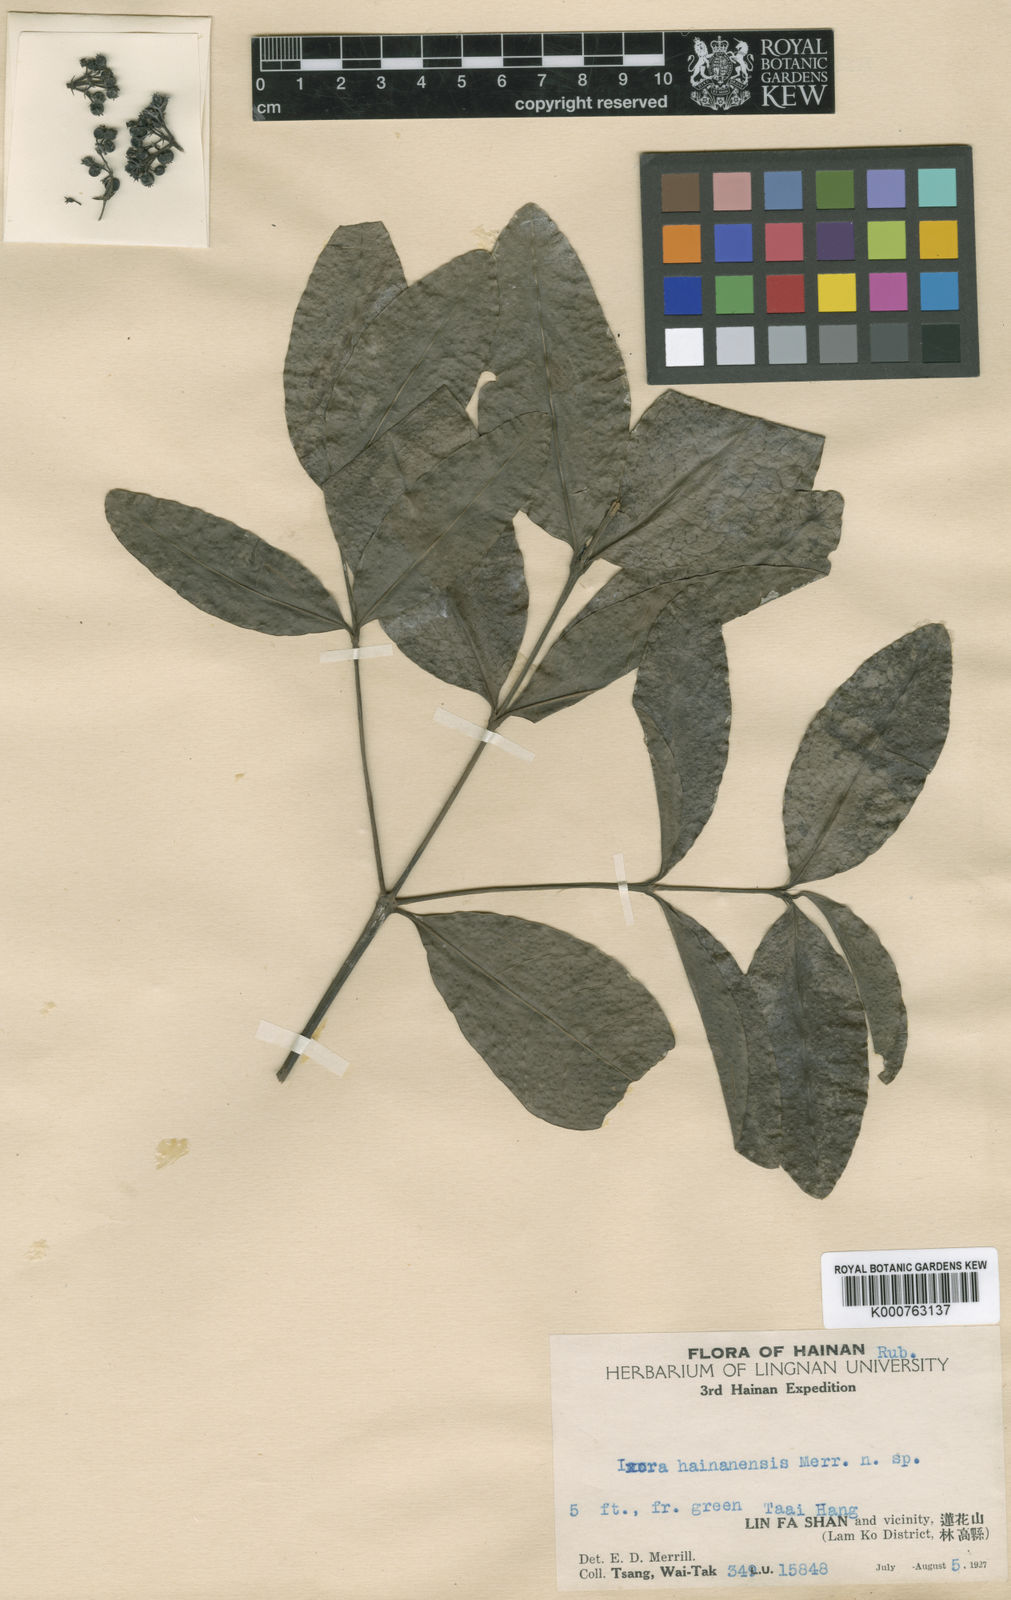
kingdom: Plantae
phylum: Tracheophyta
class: Magnoliopsida
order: Gentianales
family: Rubiaceae
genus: Ixora
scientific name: Ixora hainanensis
